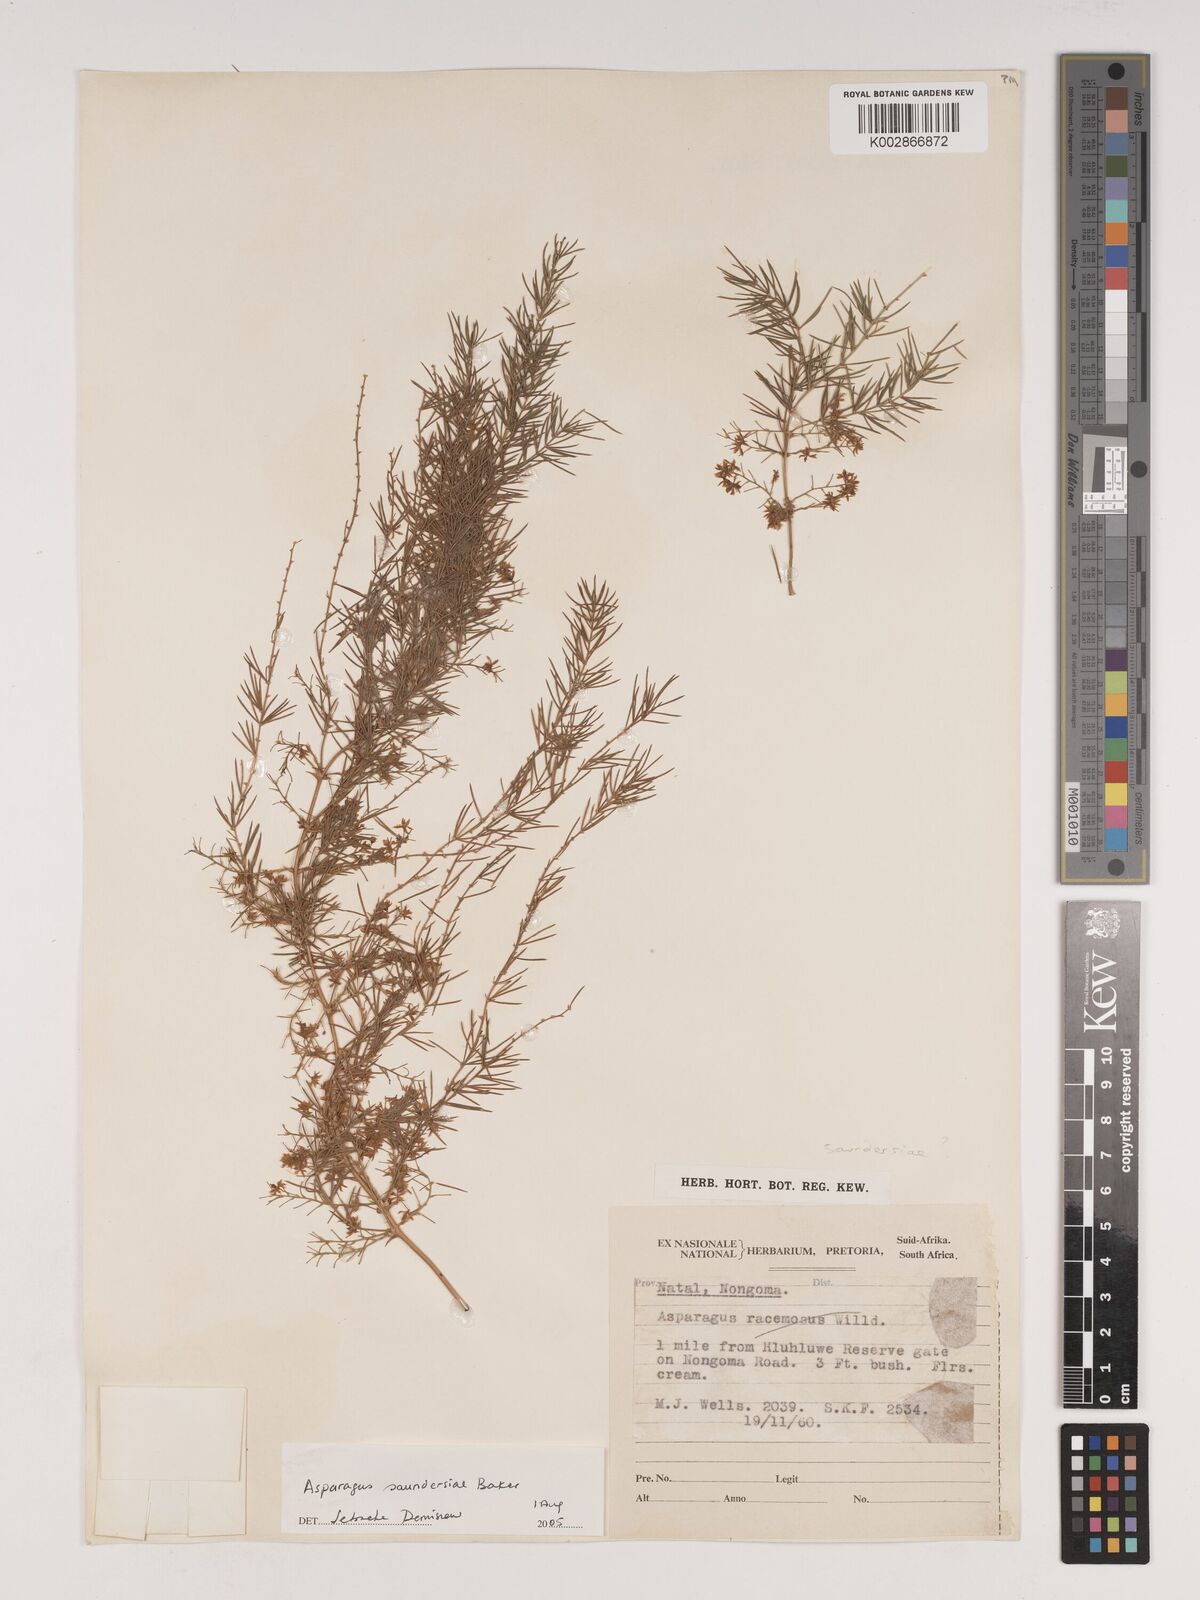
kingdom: Plantae
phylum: Tracheophyta
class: Liliopsida
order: Asparagales
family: Asparagaceae
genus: Asparagus
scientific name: Asparagus saundersiae
